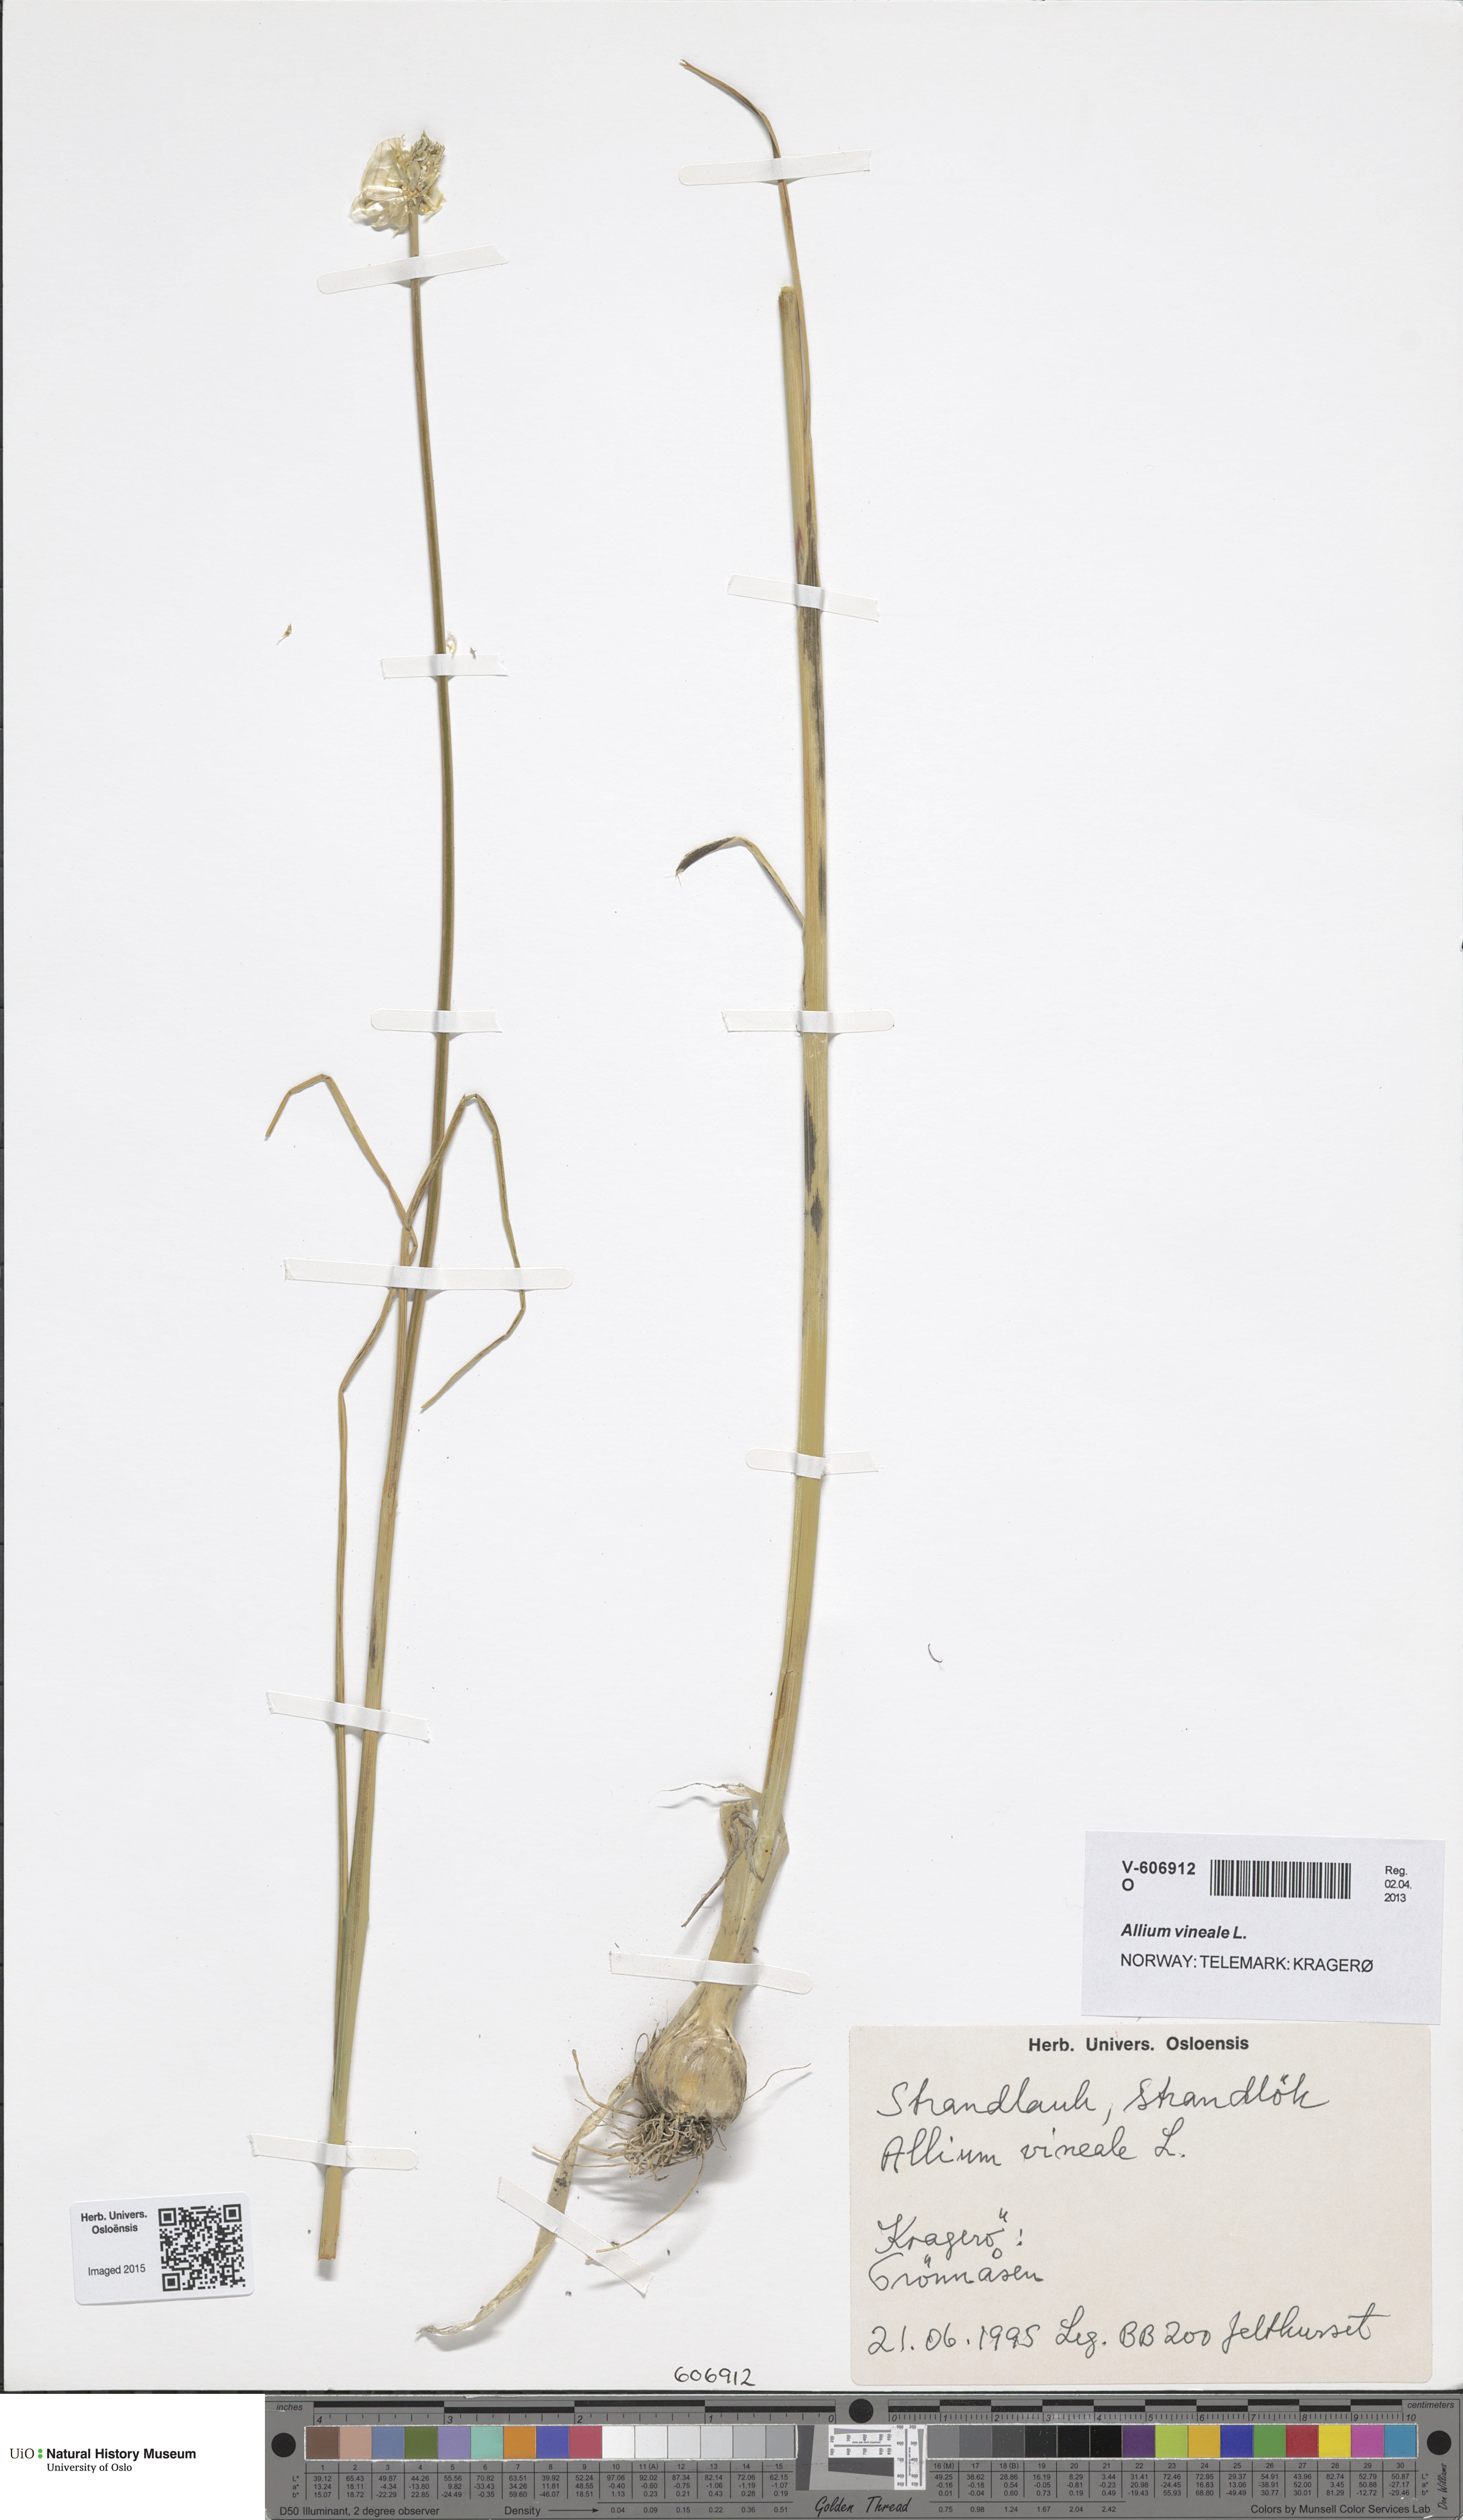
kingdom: Plantae
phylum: Tracheophyta
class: Liliopsida
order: Asparagales
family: Amaryllidaceae
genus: Allium
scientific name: Allium vineale
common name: Crow garlic
